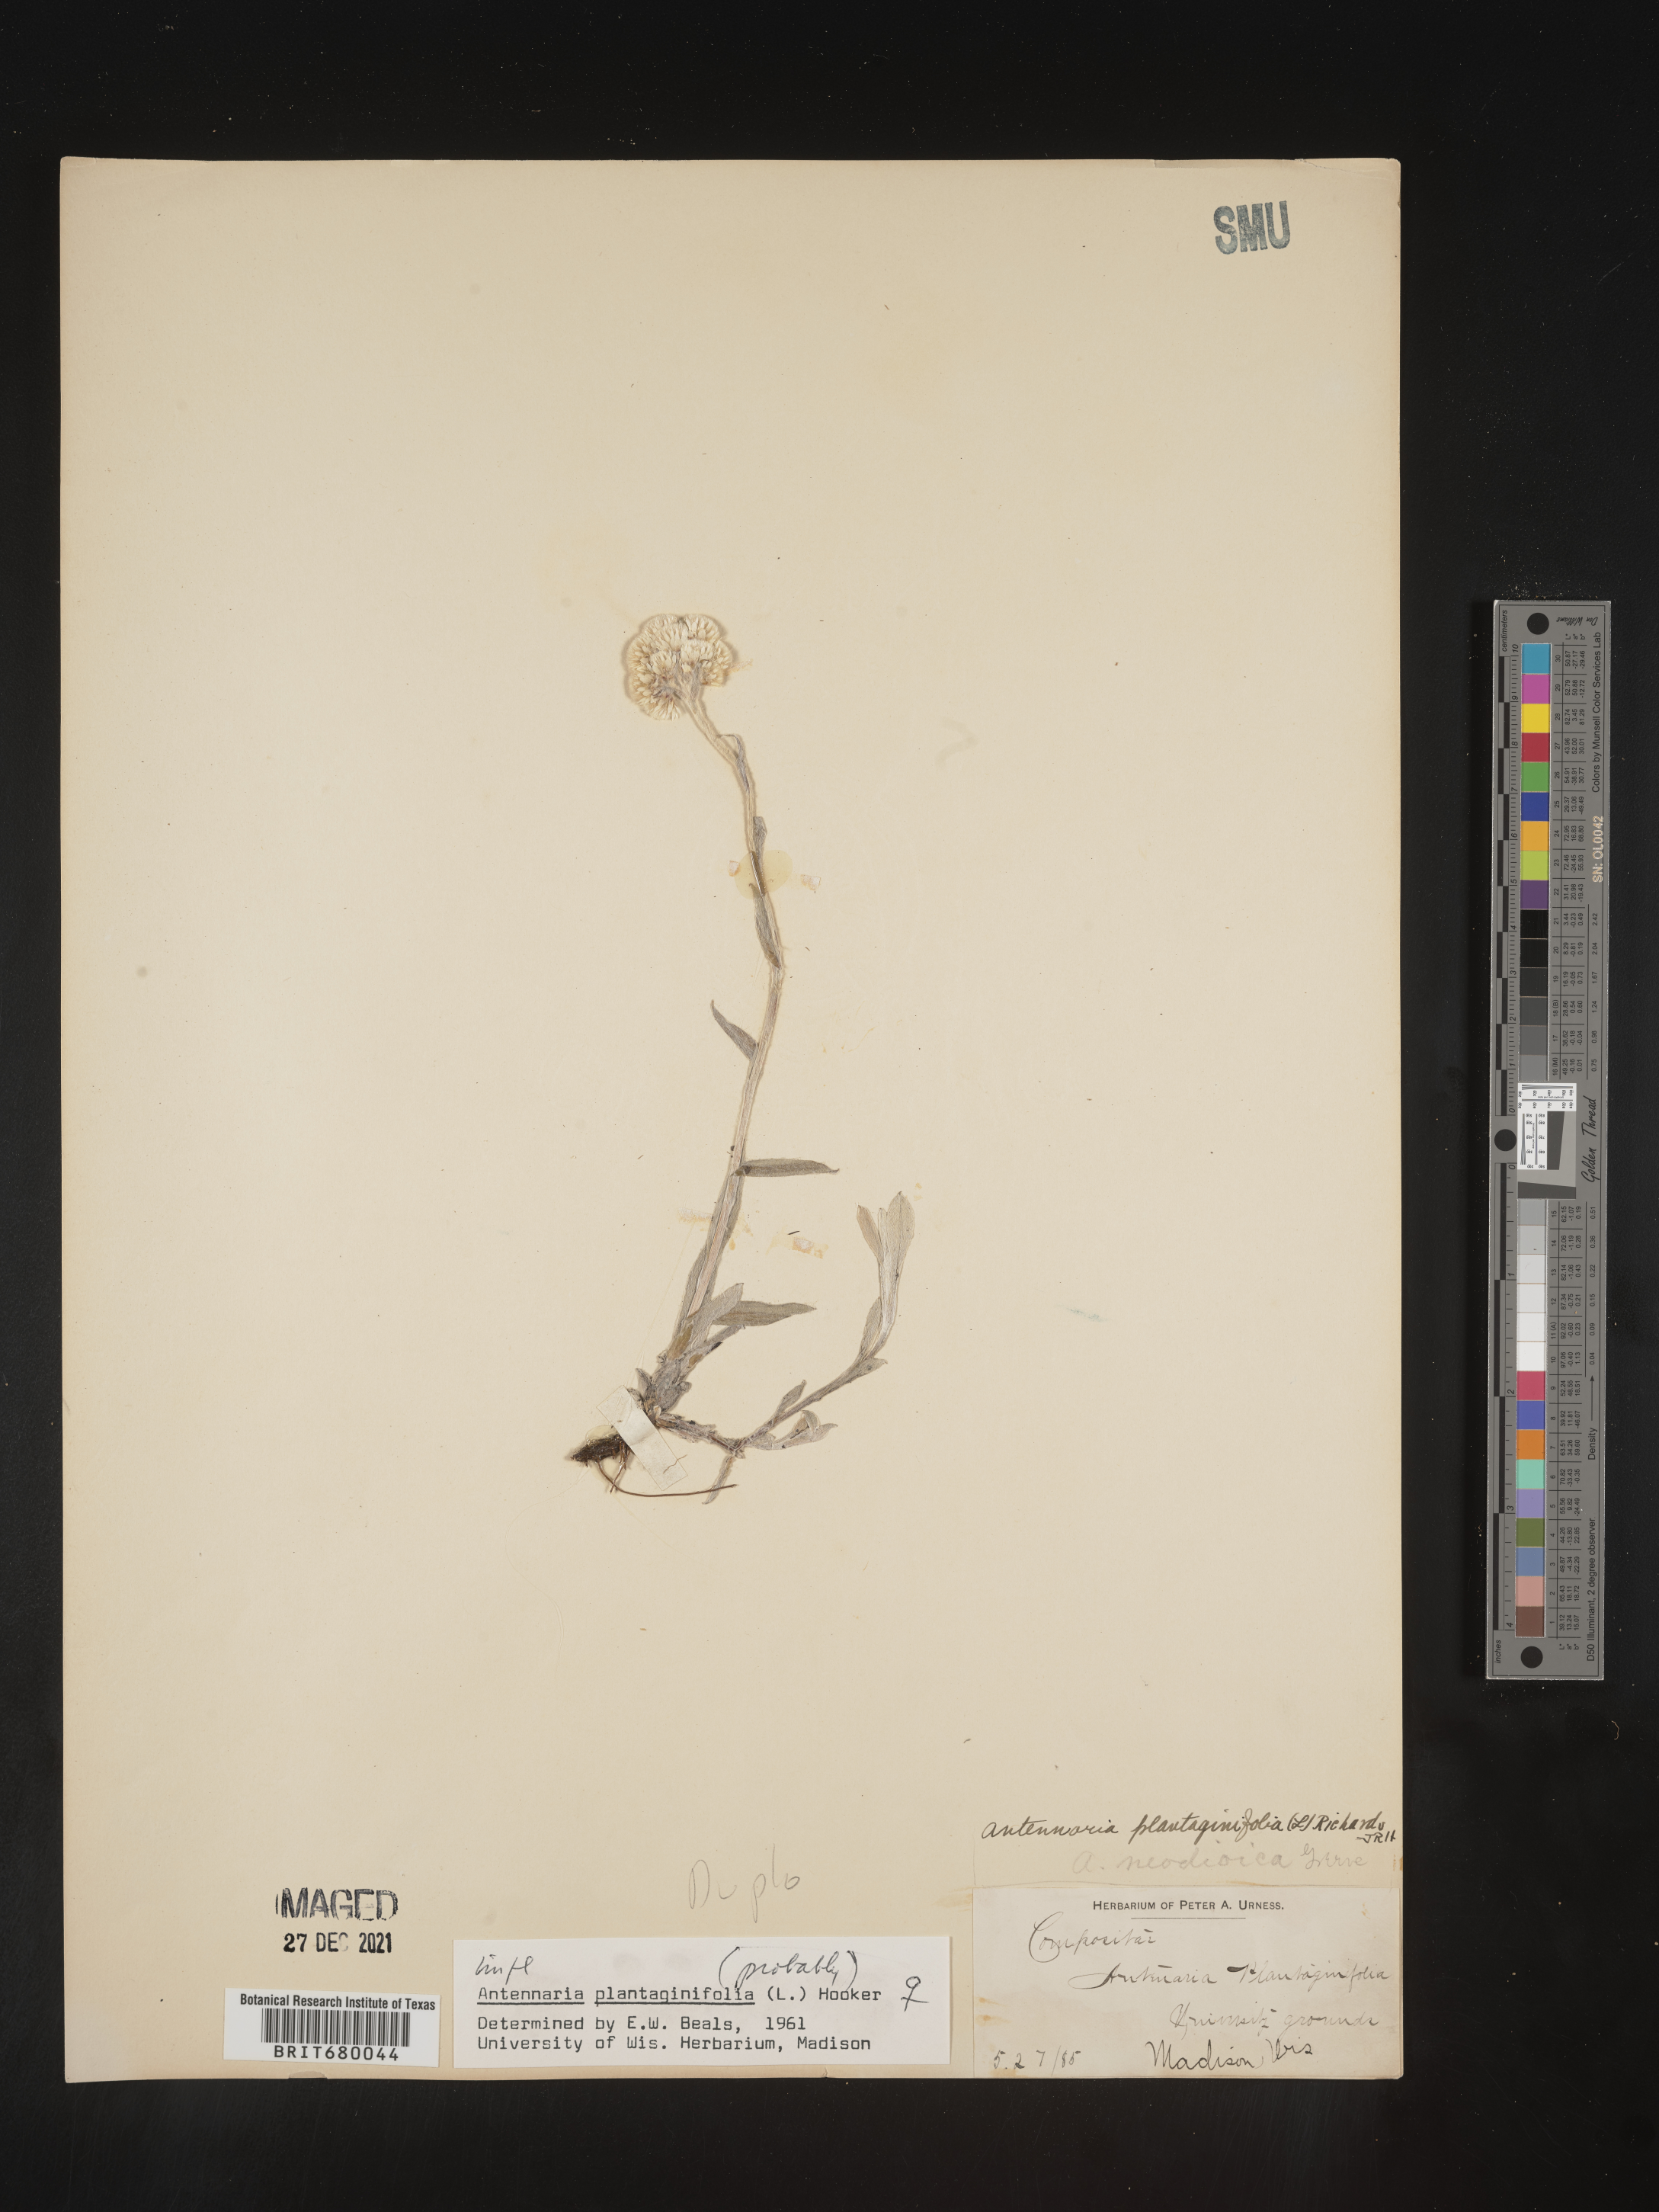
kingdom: Plantae
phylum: Tracheophyta
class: Magnoliopsida
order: Asterales
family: Asteraceae
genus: Antennaria
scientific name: Antennaria plantaginifolia
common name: Plantain-leaved pussytoes
